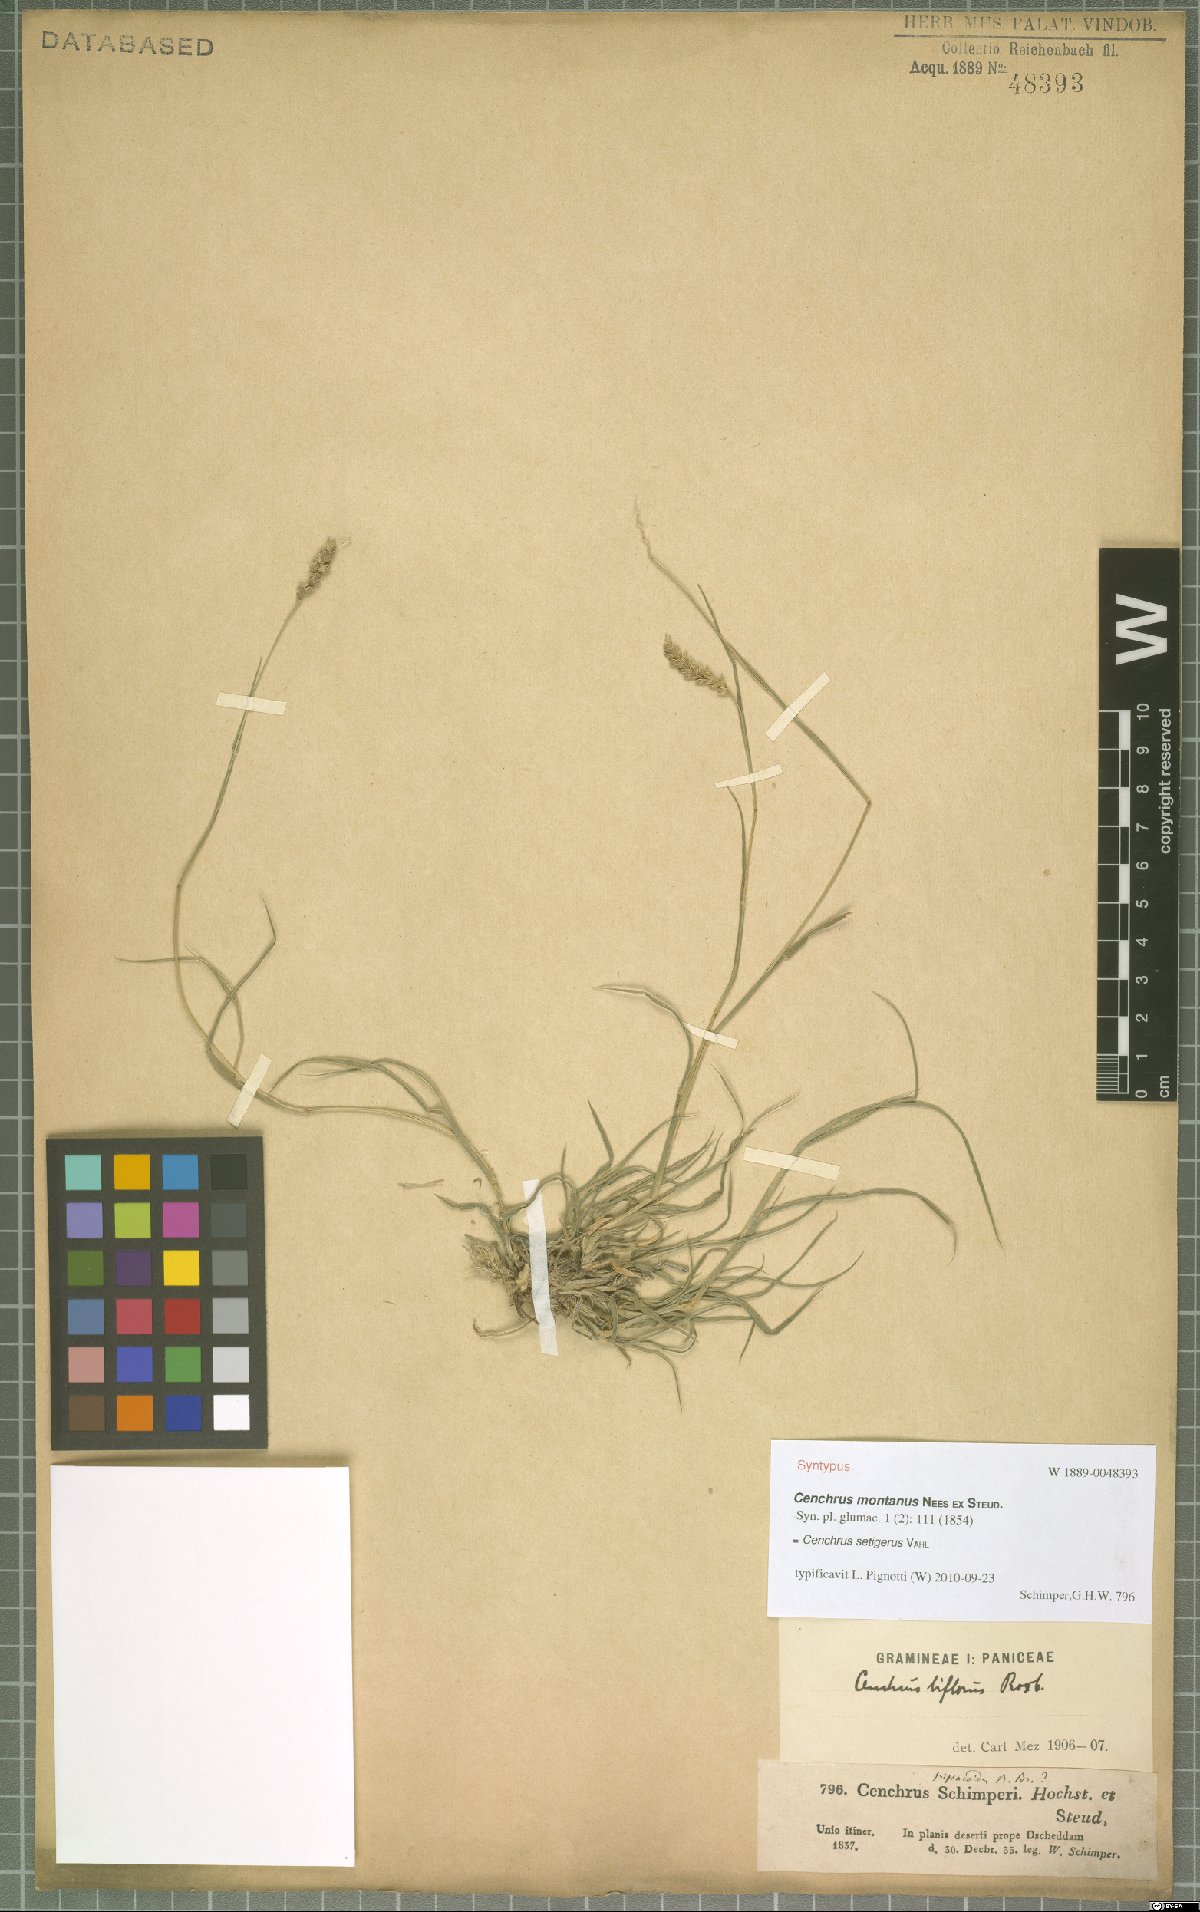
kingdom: Plantae
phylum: Tracheophyta
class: Liliopsida
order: Poales
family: Poaceae
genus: Cenchrus
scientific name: Cenchrus setigerus
